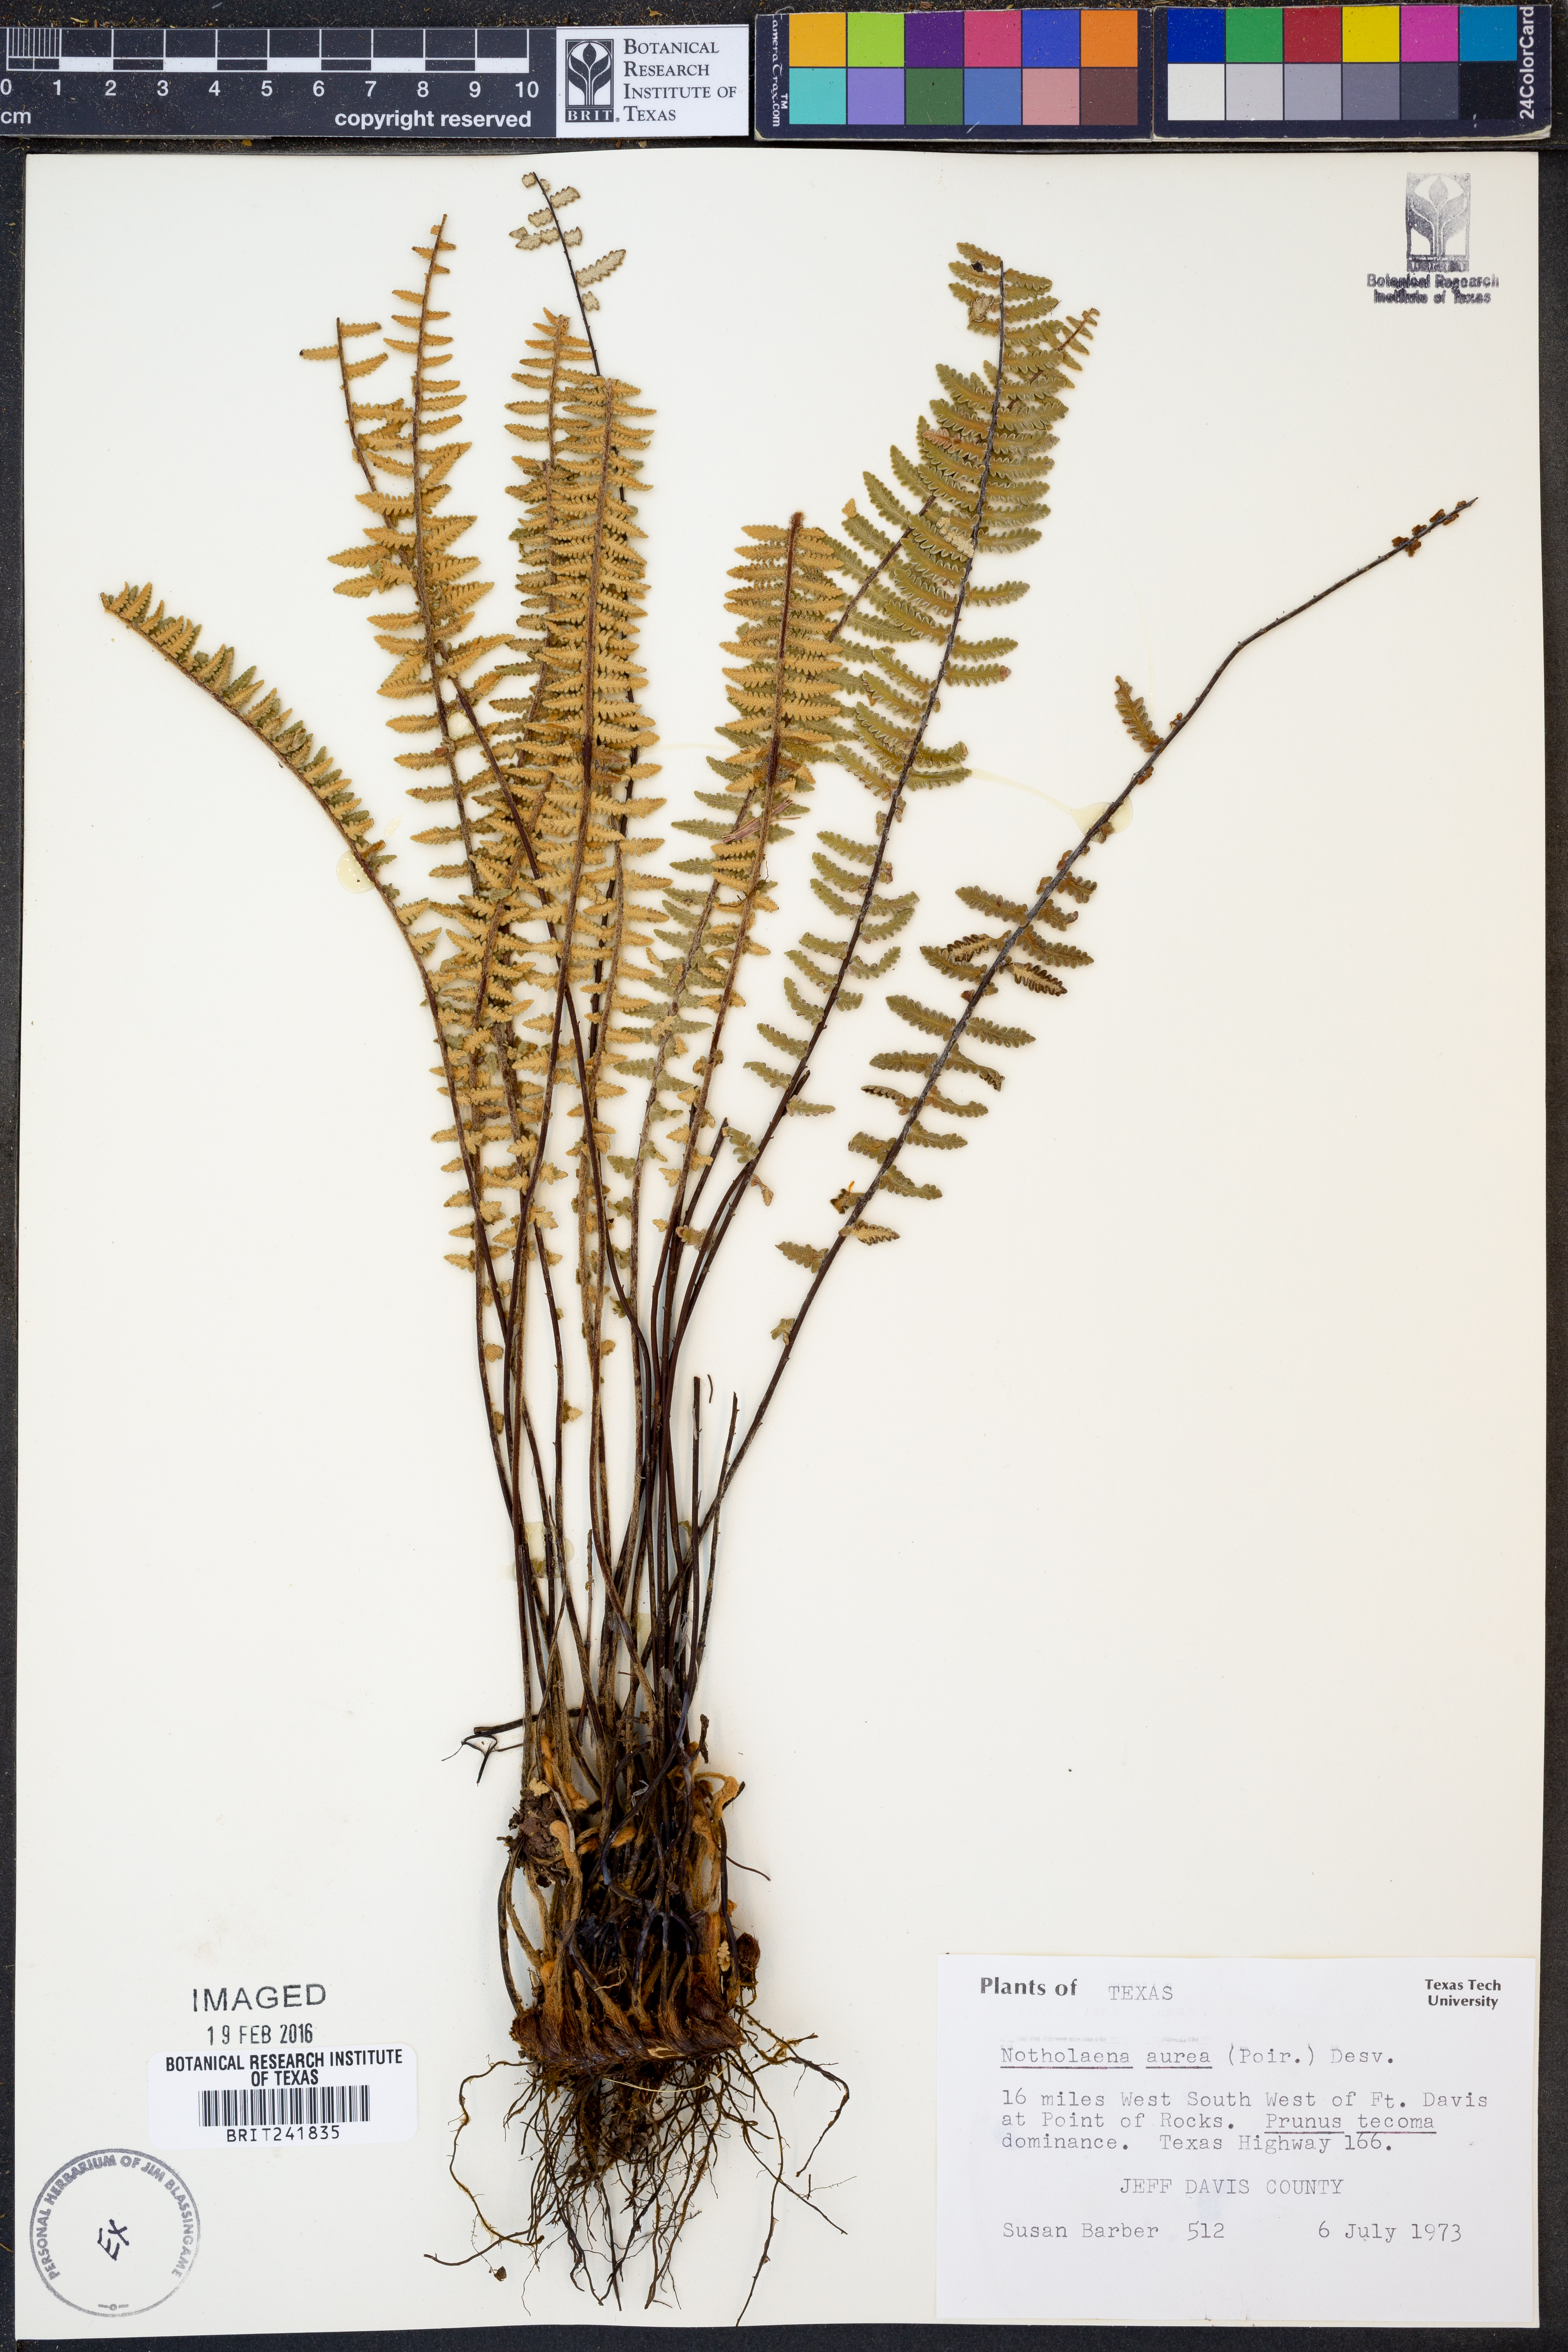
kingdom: Plantae
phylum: Tracheophyta
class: Polypodiopsida
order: Polypodiales
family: Pteridaceae
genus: Myriopteris
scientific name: Myriopteris aurea
